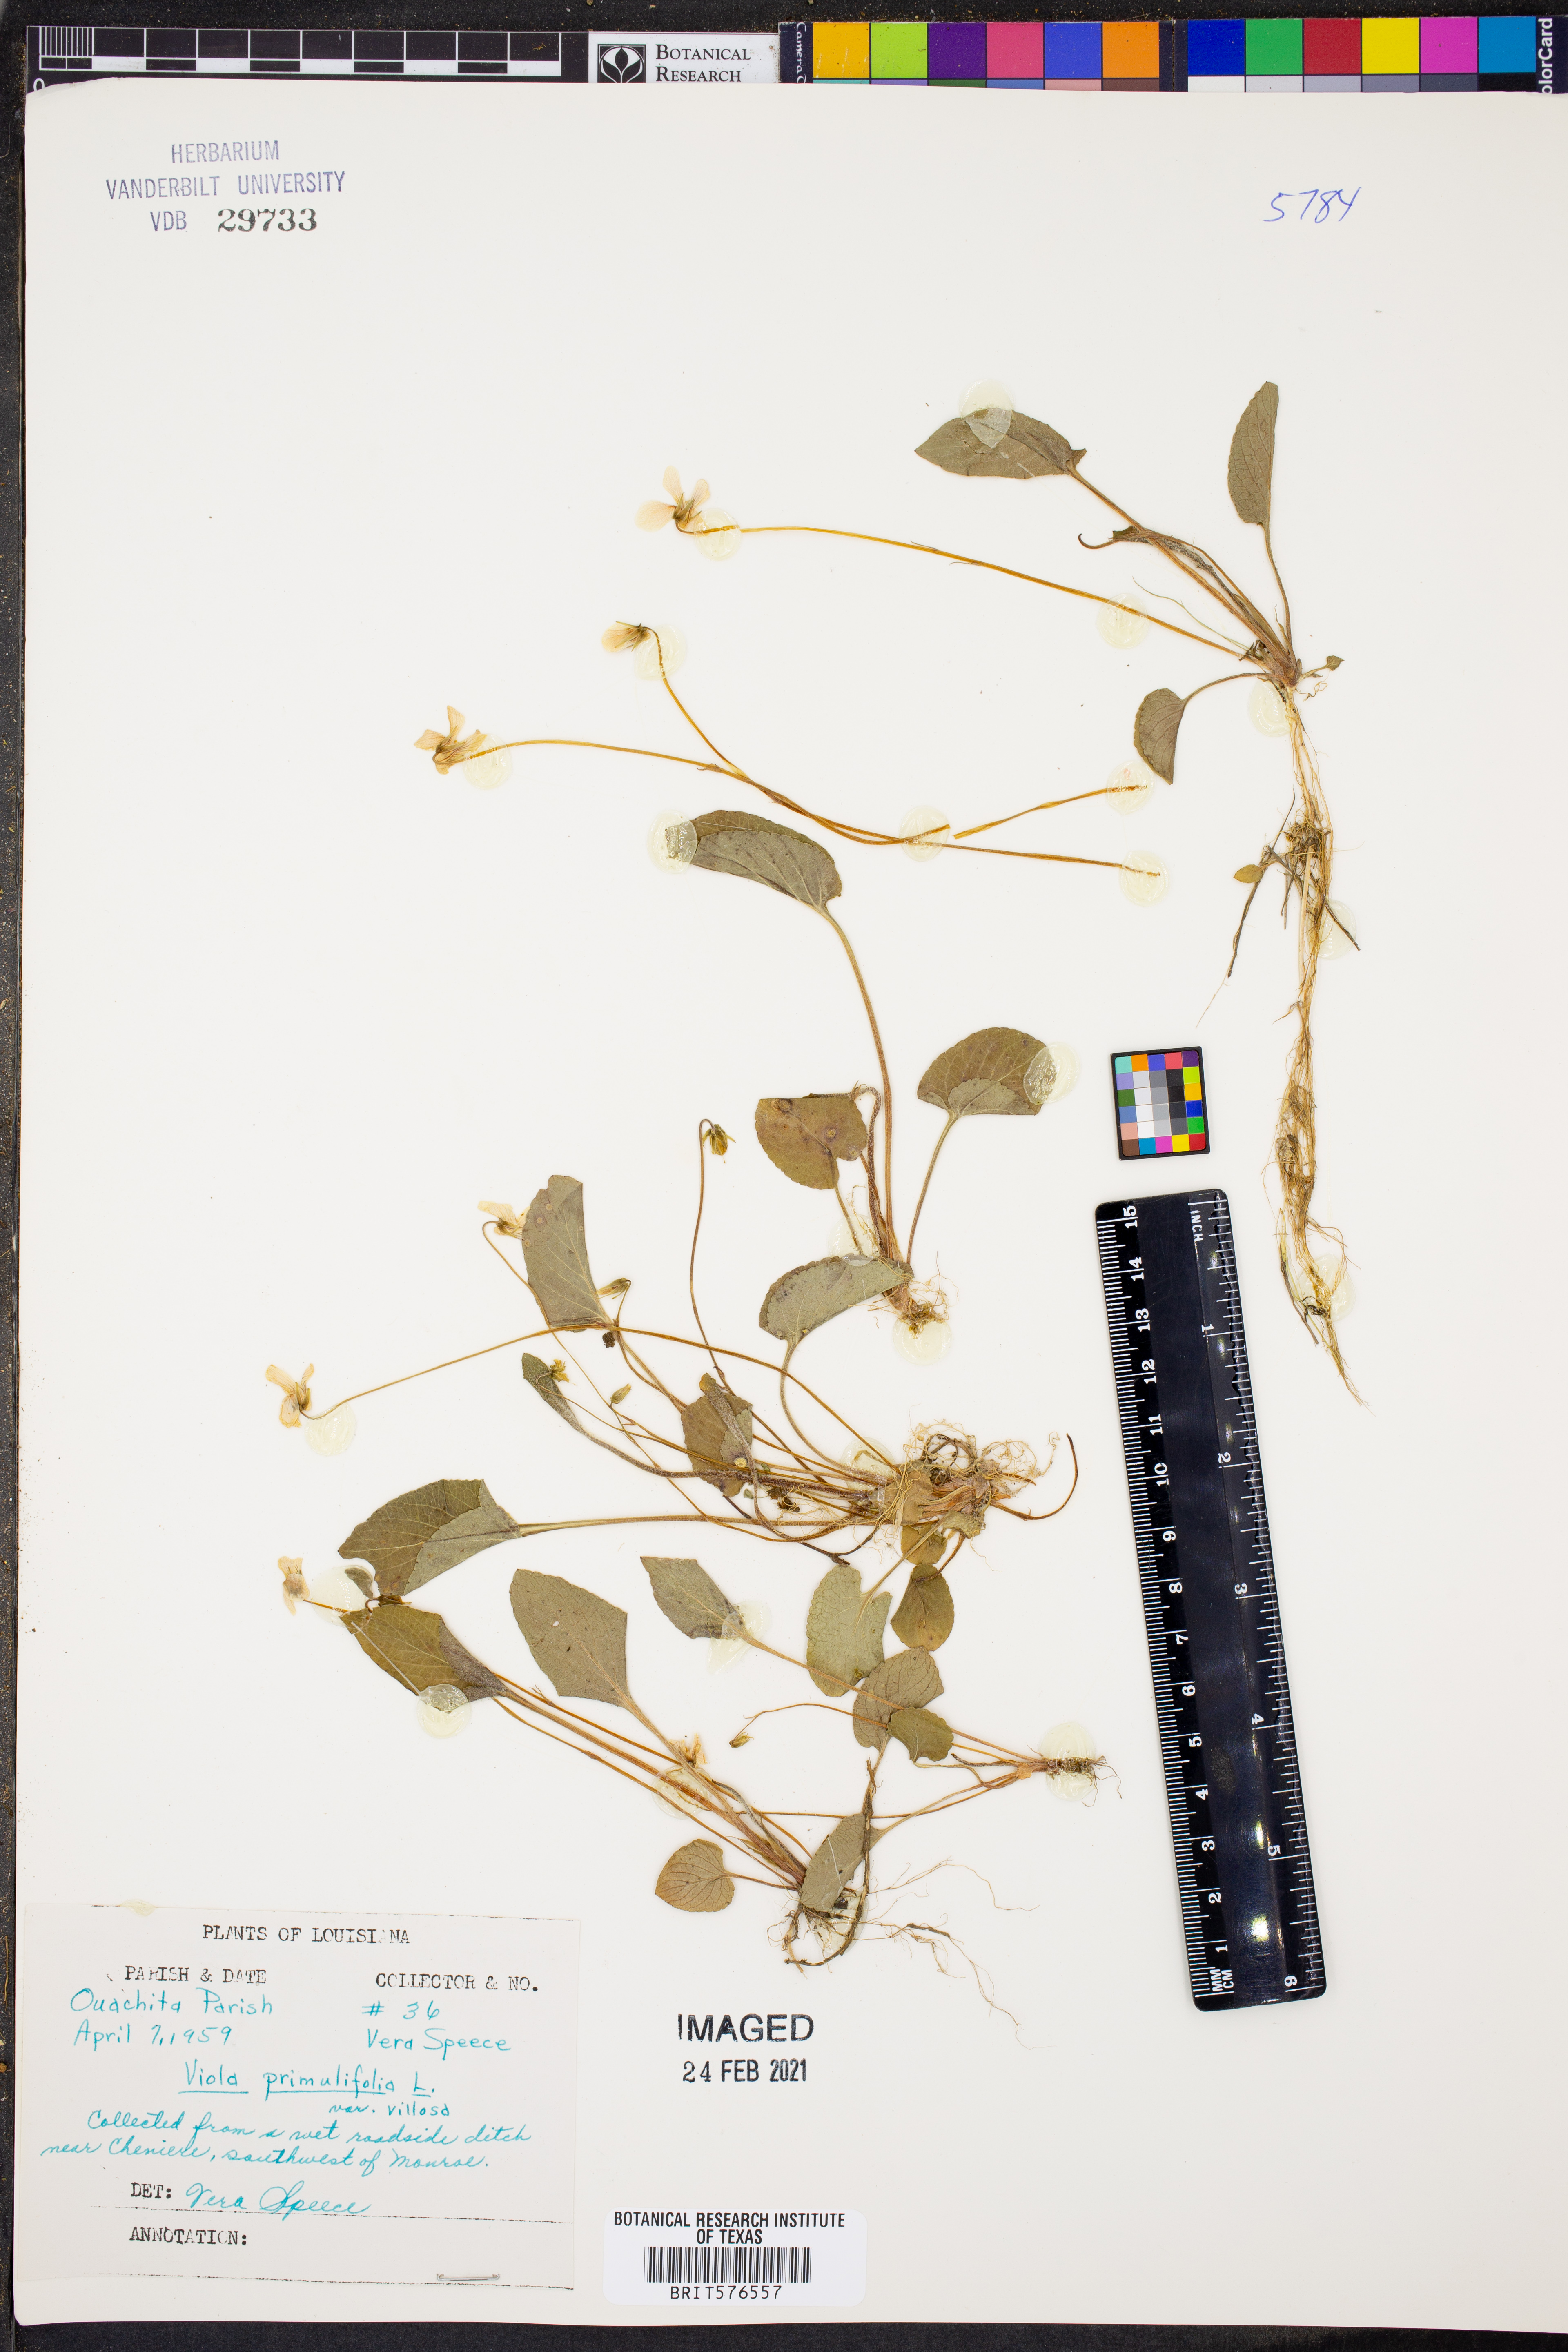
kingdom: Plantae
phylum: Tracheophyta
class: Magnoliopsida
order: Malpighiales
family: Violaceae
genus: Viola
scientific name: Viola primulifolia
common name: Primrose-leaf violet
